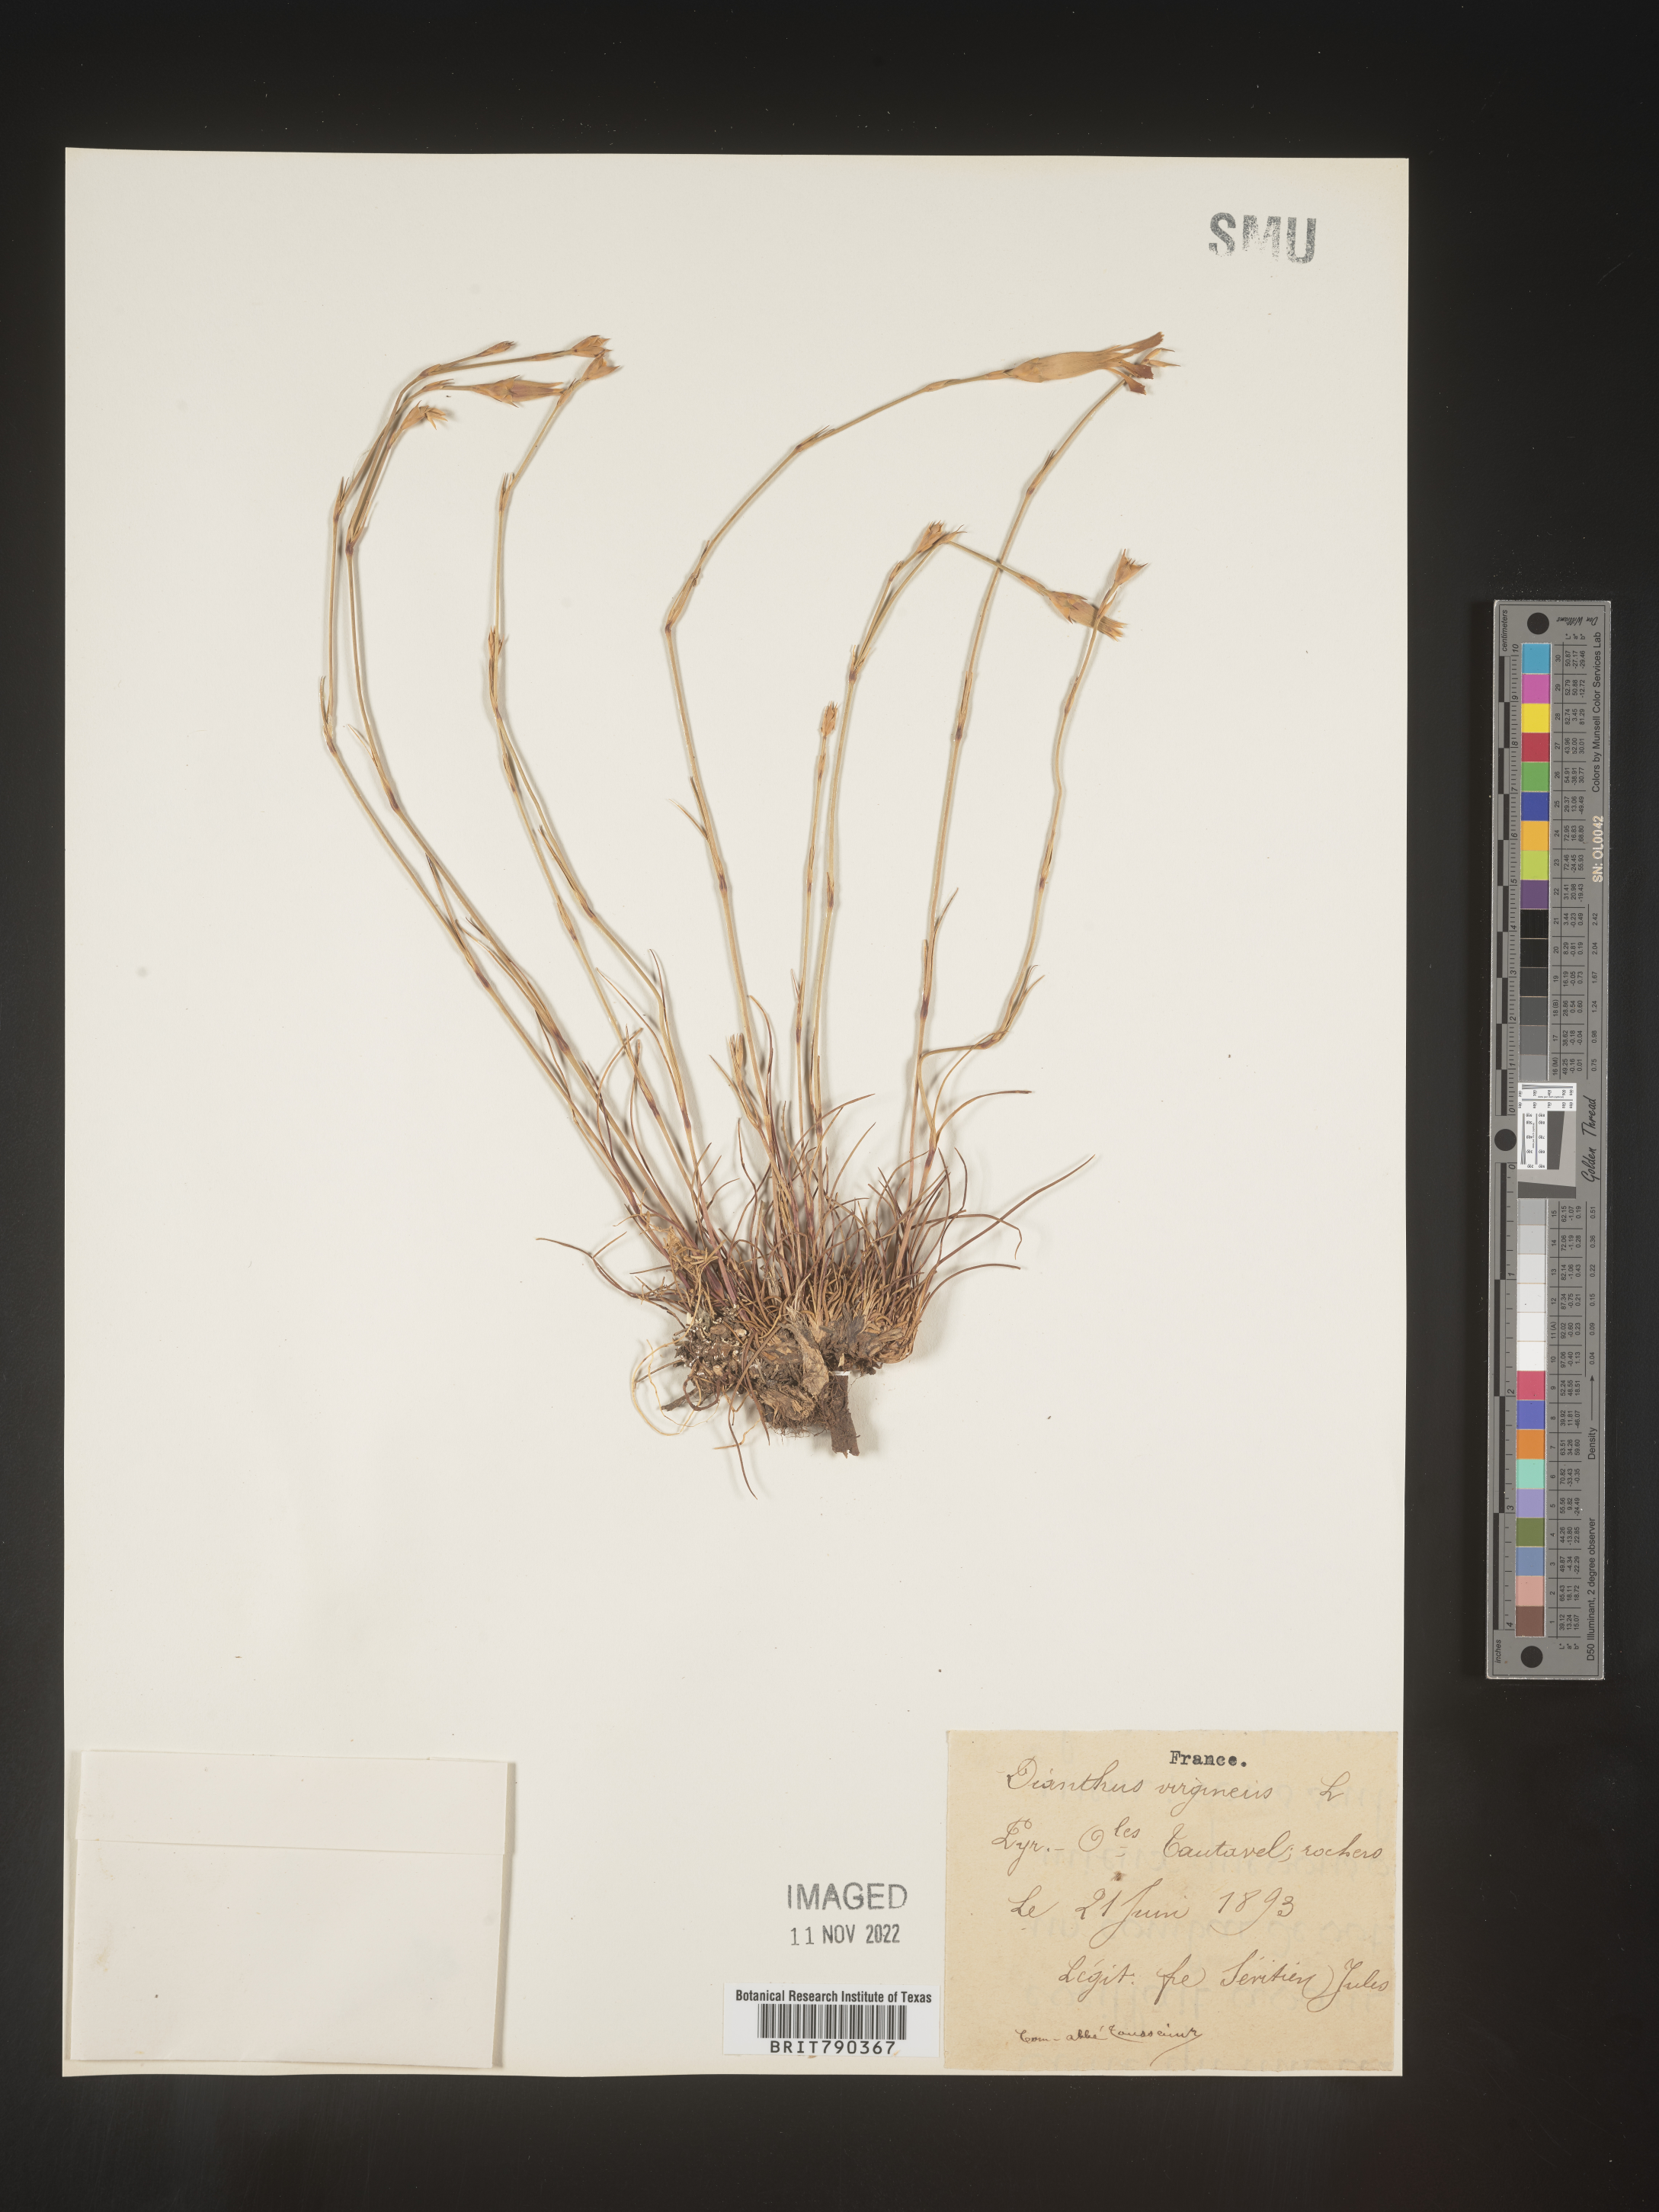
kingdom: Plantae
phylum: Tracheophyta
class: Magnoliopsida
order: Caryophyllales
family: Caryophyllaceae
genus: Dianthus
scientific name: Dianthus
